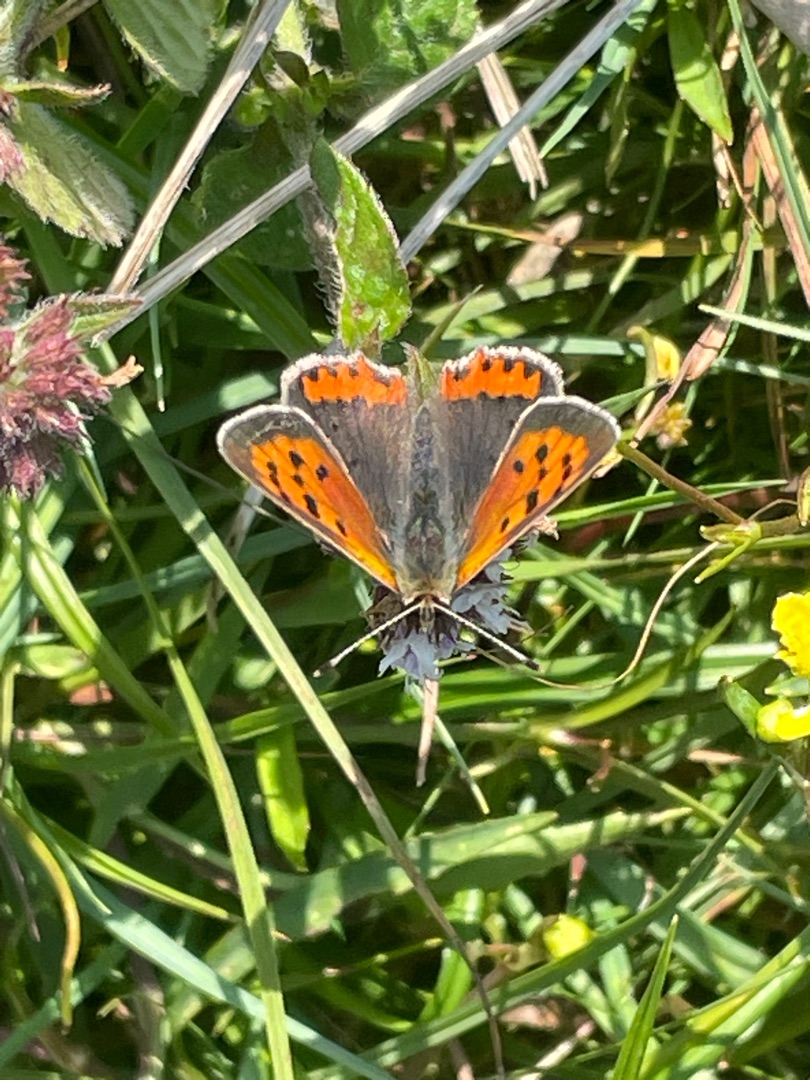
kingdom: Animalia
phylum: Arthropoda
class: Insecta
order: Lepidoptera
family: Lycaenidae
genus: Lycaena
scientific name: Lycaena phlaeas
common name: Lille ildfugl
